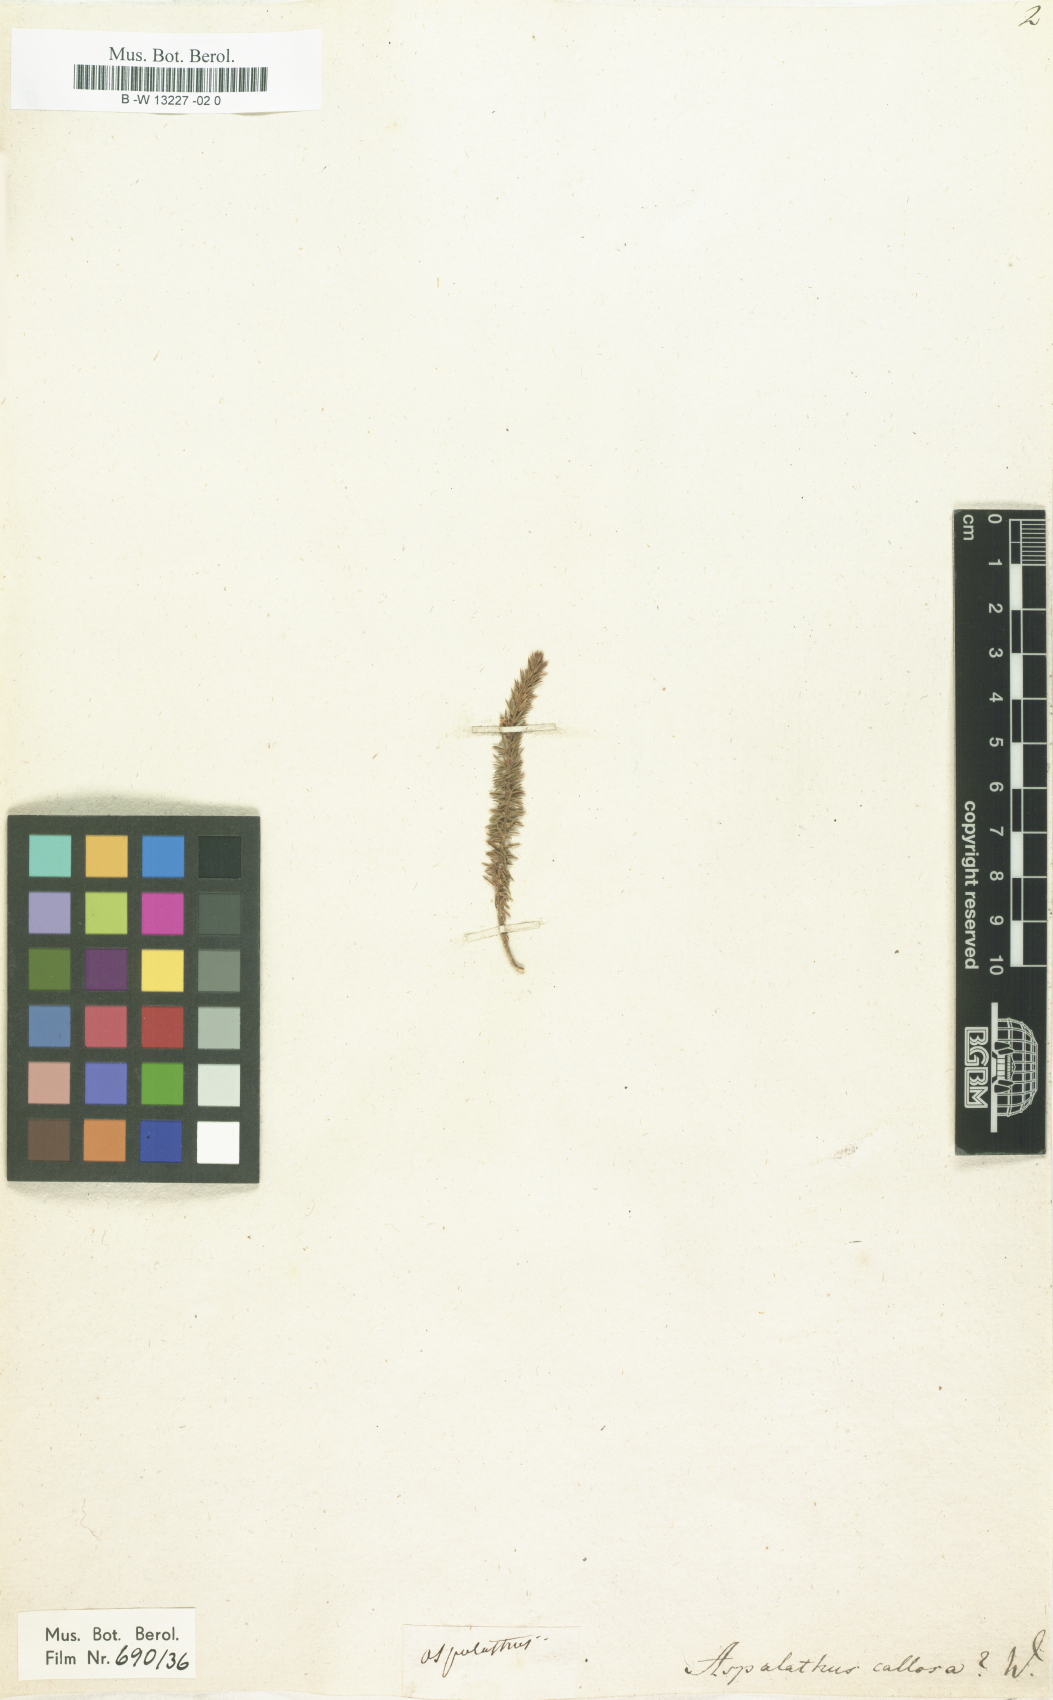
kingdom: Plantae
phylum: Tracheophyta
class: Magnoliopsida
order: Fabales
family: Fabaceae
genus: Aspalathus
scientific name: Aspalathus callosa
